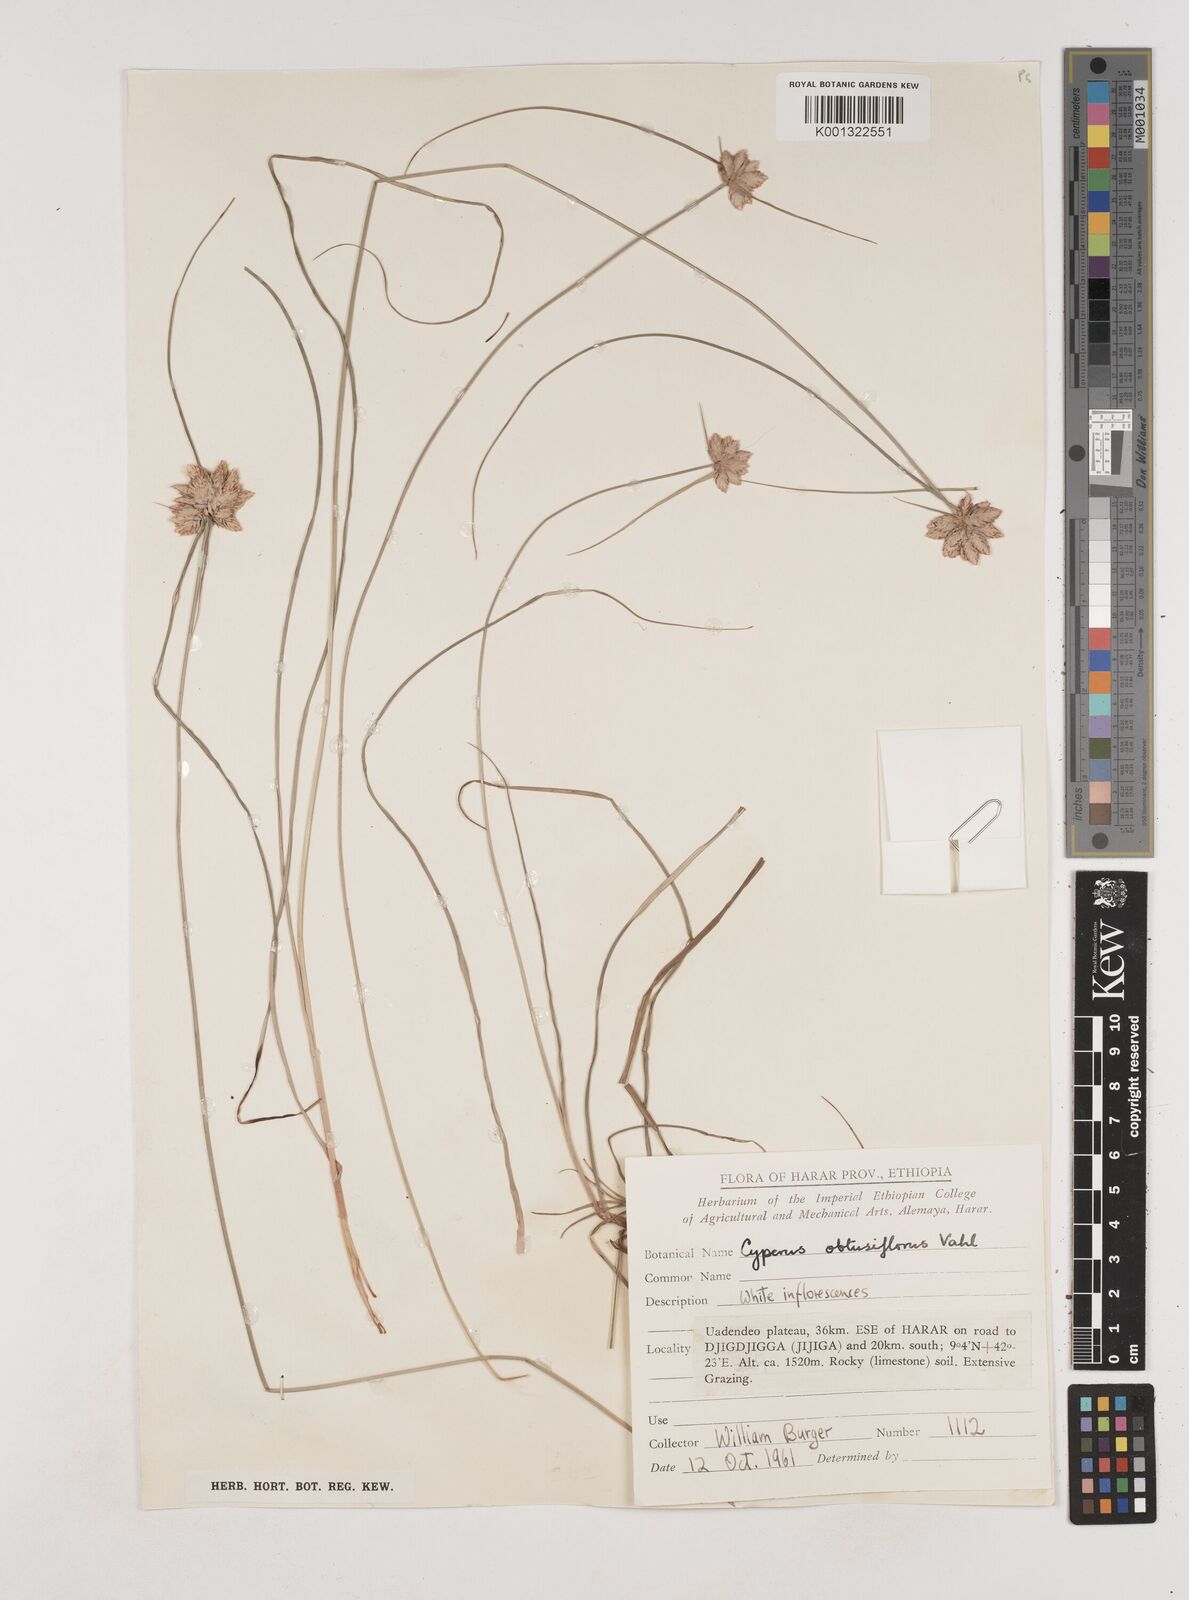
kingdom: Plantae
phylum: Tracheophyta
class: Liliopsida
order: Poales
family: Cyperaceae
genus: Cyperus
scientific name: Cyperus niveus
